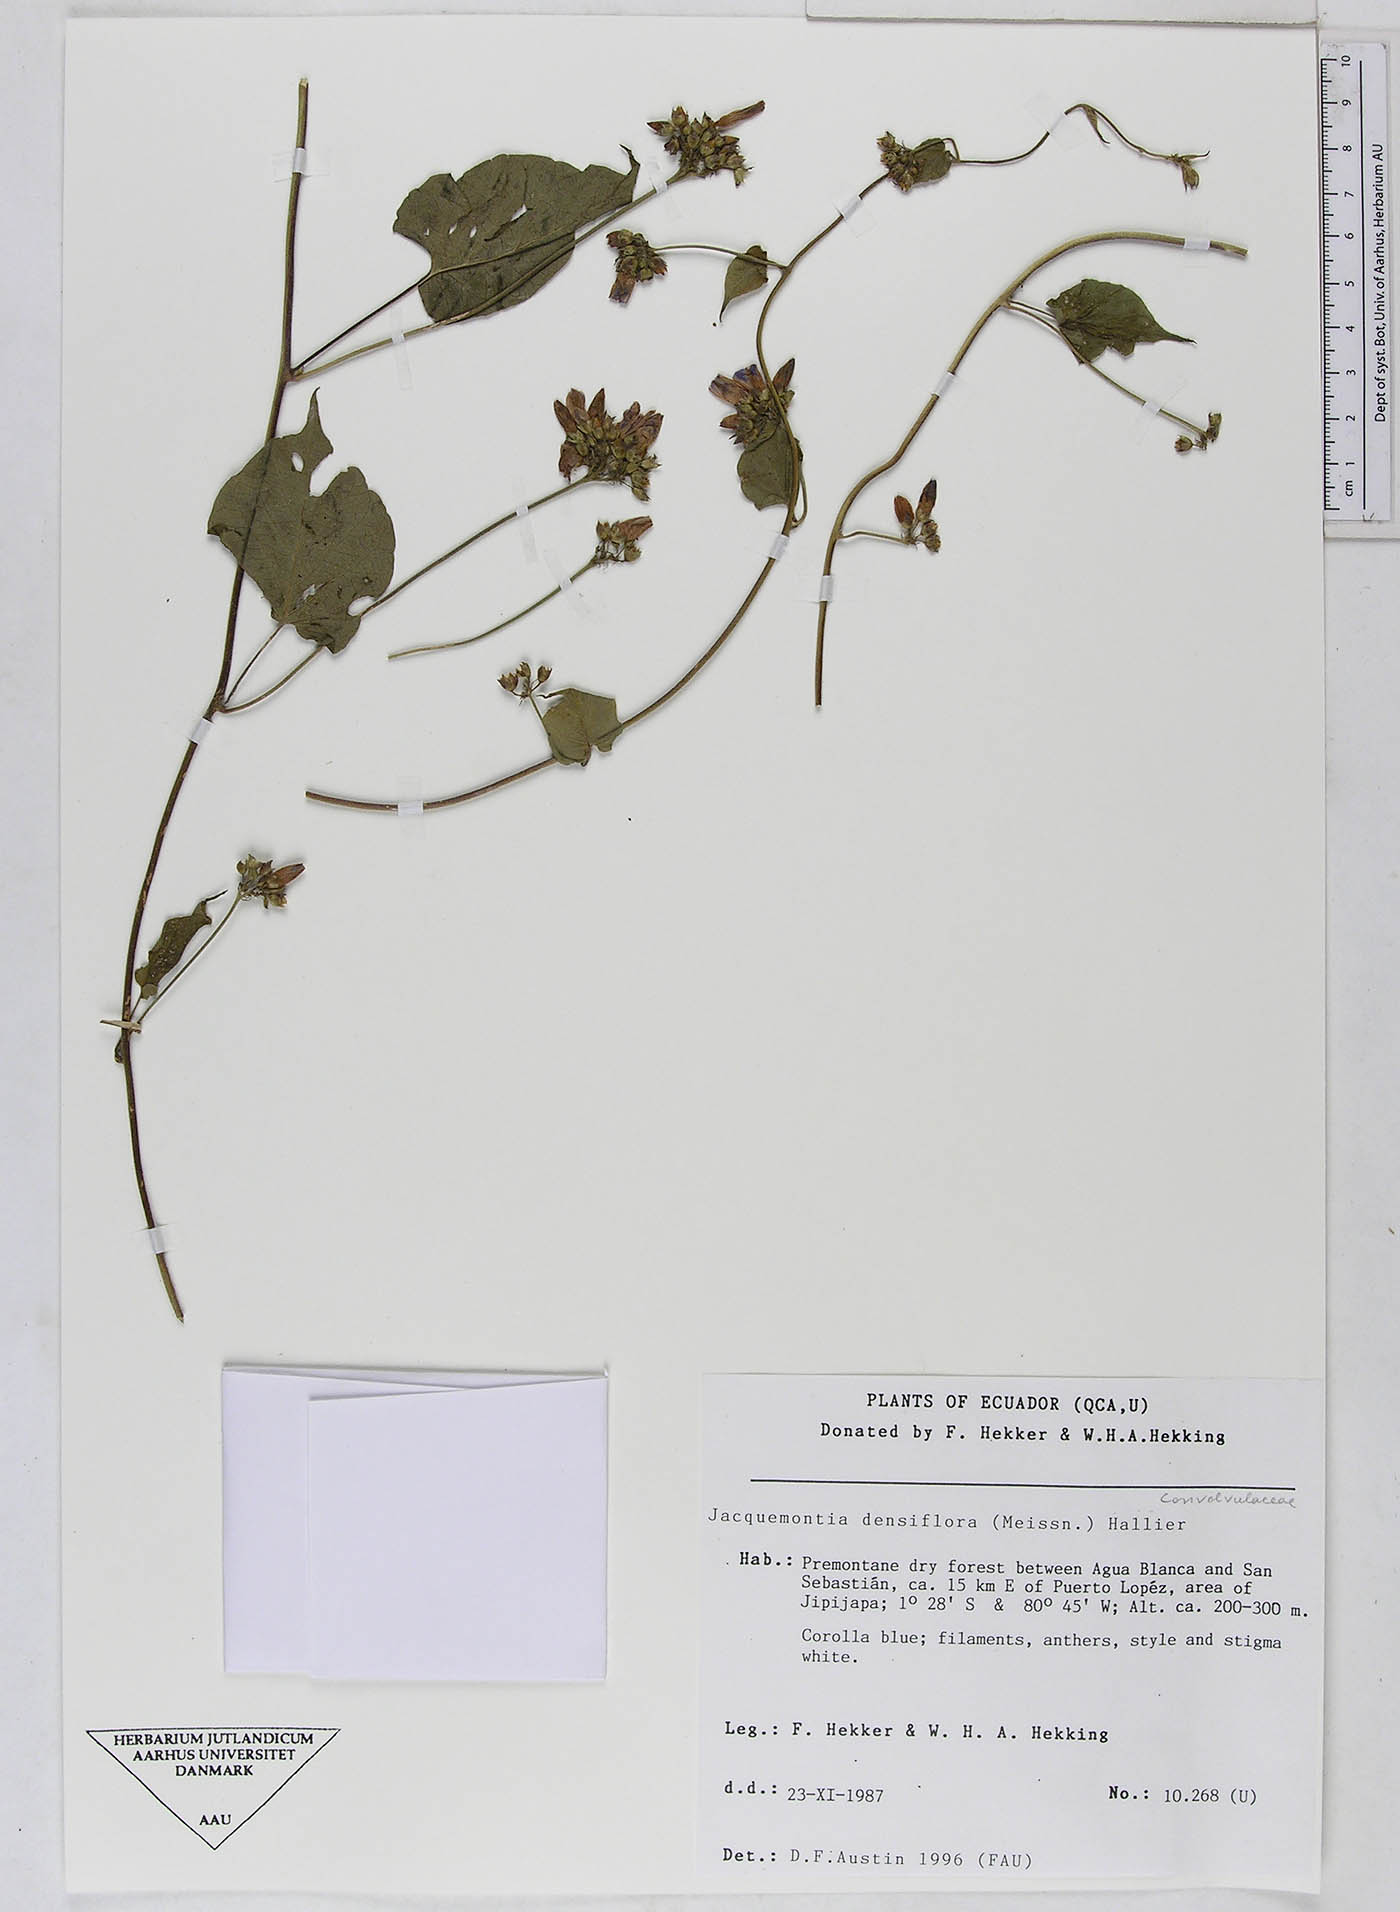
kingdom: Plantae
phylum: Tracheophyta
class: Magnoliopsida
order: Solanales
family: Convolvulaceae
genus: Jacquemontia
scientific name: Jacquemontia densiflora
